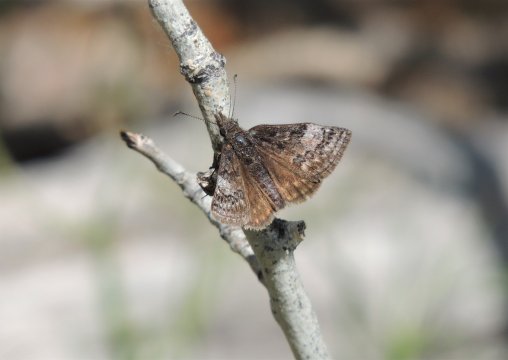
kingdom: Animalia
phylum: Arthropoda
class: Insecta
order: Lepidoptera
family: Hesperiidae
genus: Erynnis
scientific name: Erynnis icelus
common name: Dreamy Duskywing
